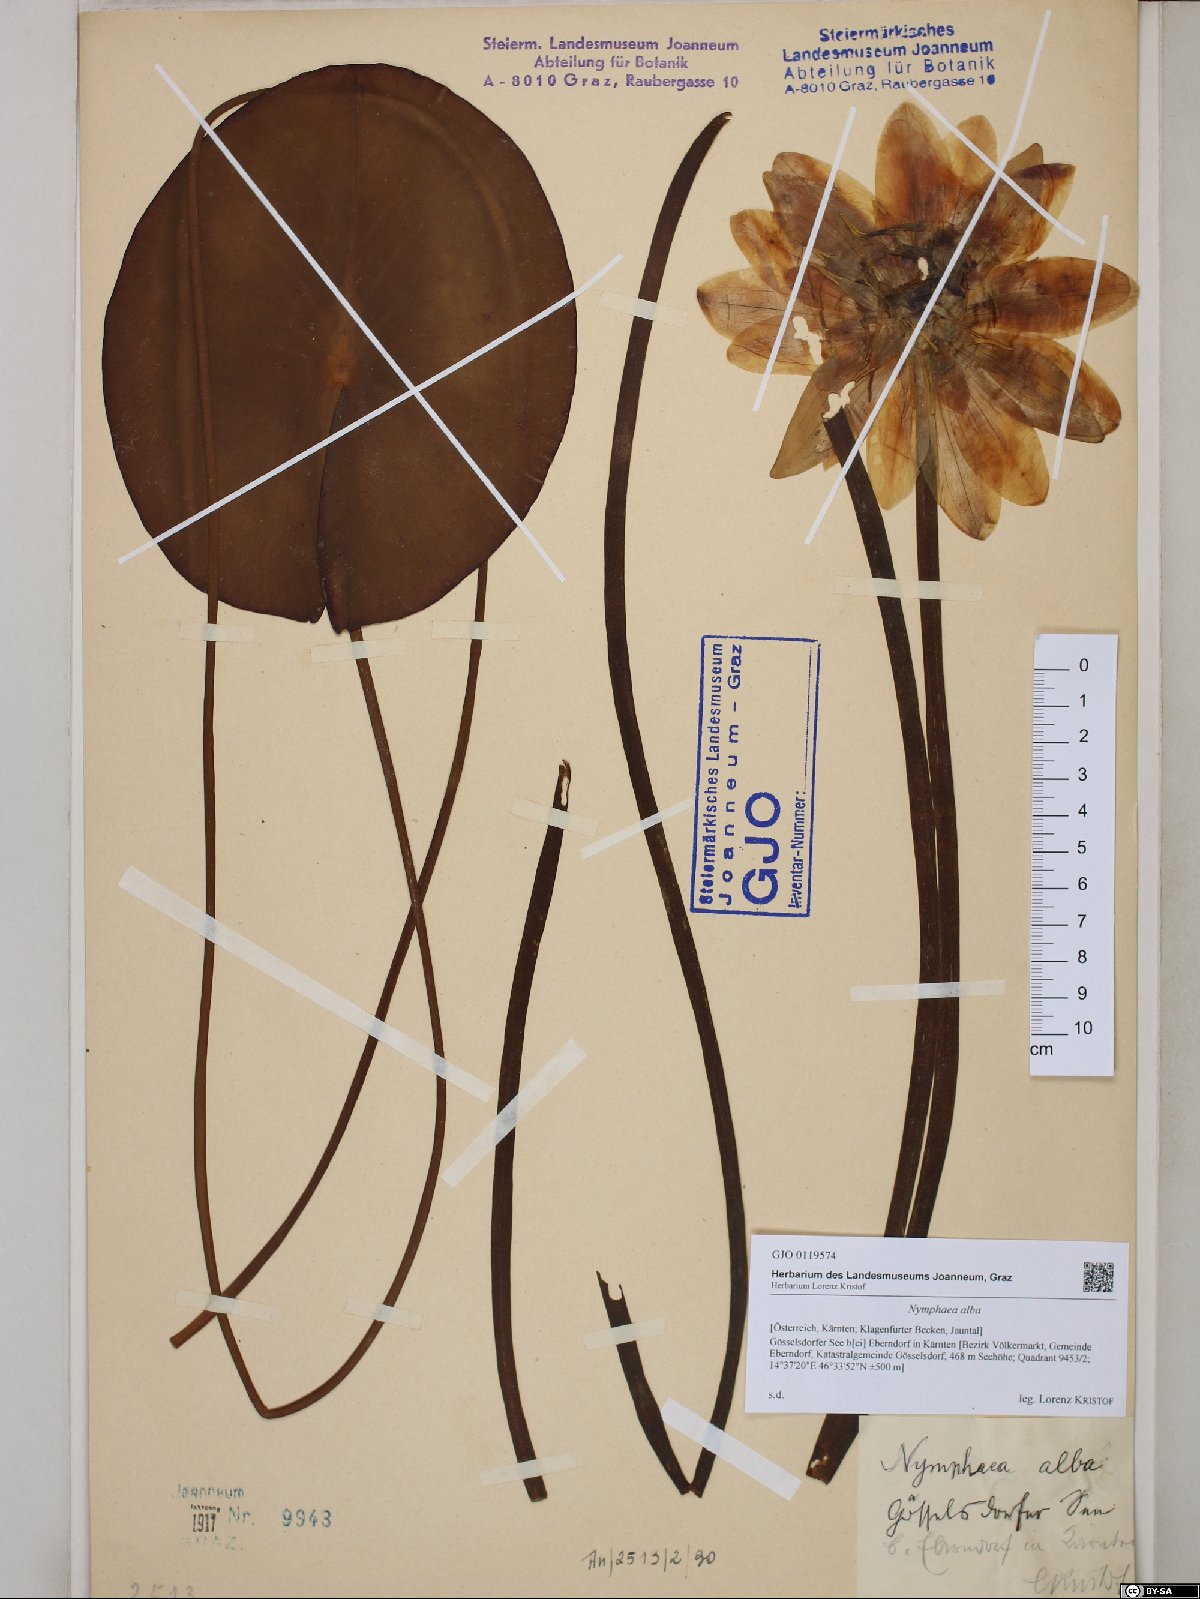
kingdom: Plantae
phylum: Tracheophyta
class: Magnoliopsida
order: Nymphaeales
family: Nymphaeaceae
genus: Nymphaea
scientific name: Nymphaea alba
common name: White water-lily
